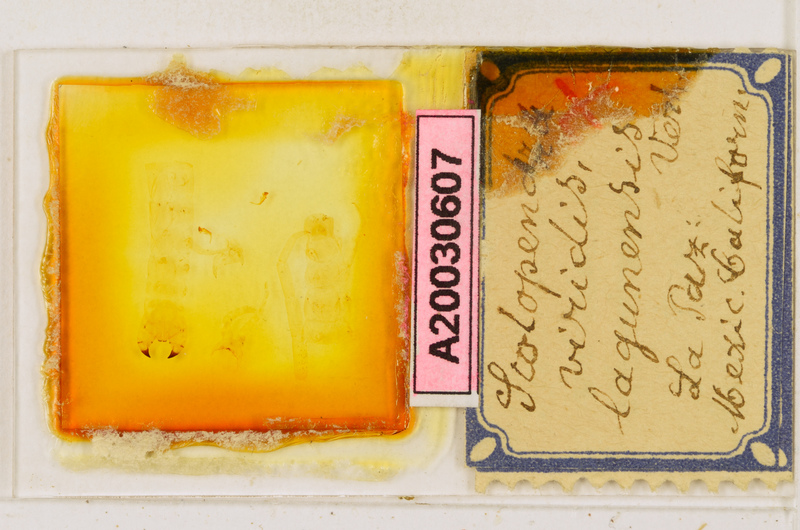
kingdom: Animalia
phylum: Arthropoda
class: Chilopoda
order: Scolopendromorpha
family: Scolopendridae
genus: Scolopendra
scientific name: Scolopendra viridis
